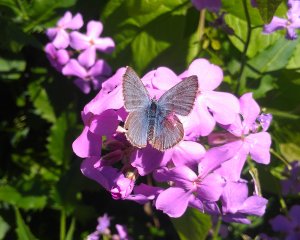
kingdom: Animalia
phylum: Arthropoda
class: Insecta
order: Lepidoptera
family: Lycaenidae
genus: Glaucopsyche
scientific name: Glaucopsyche lygdamus
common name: Silvery Blue
